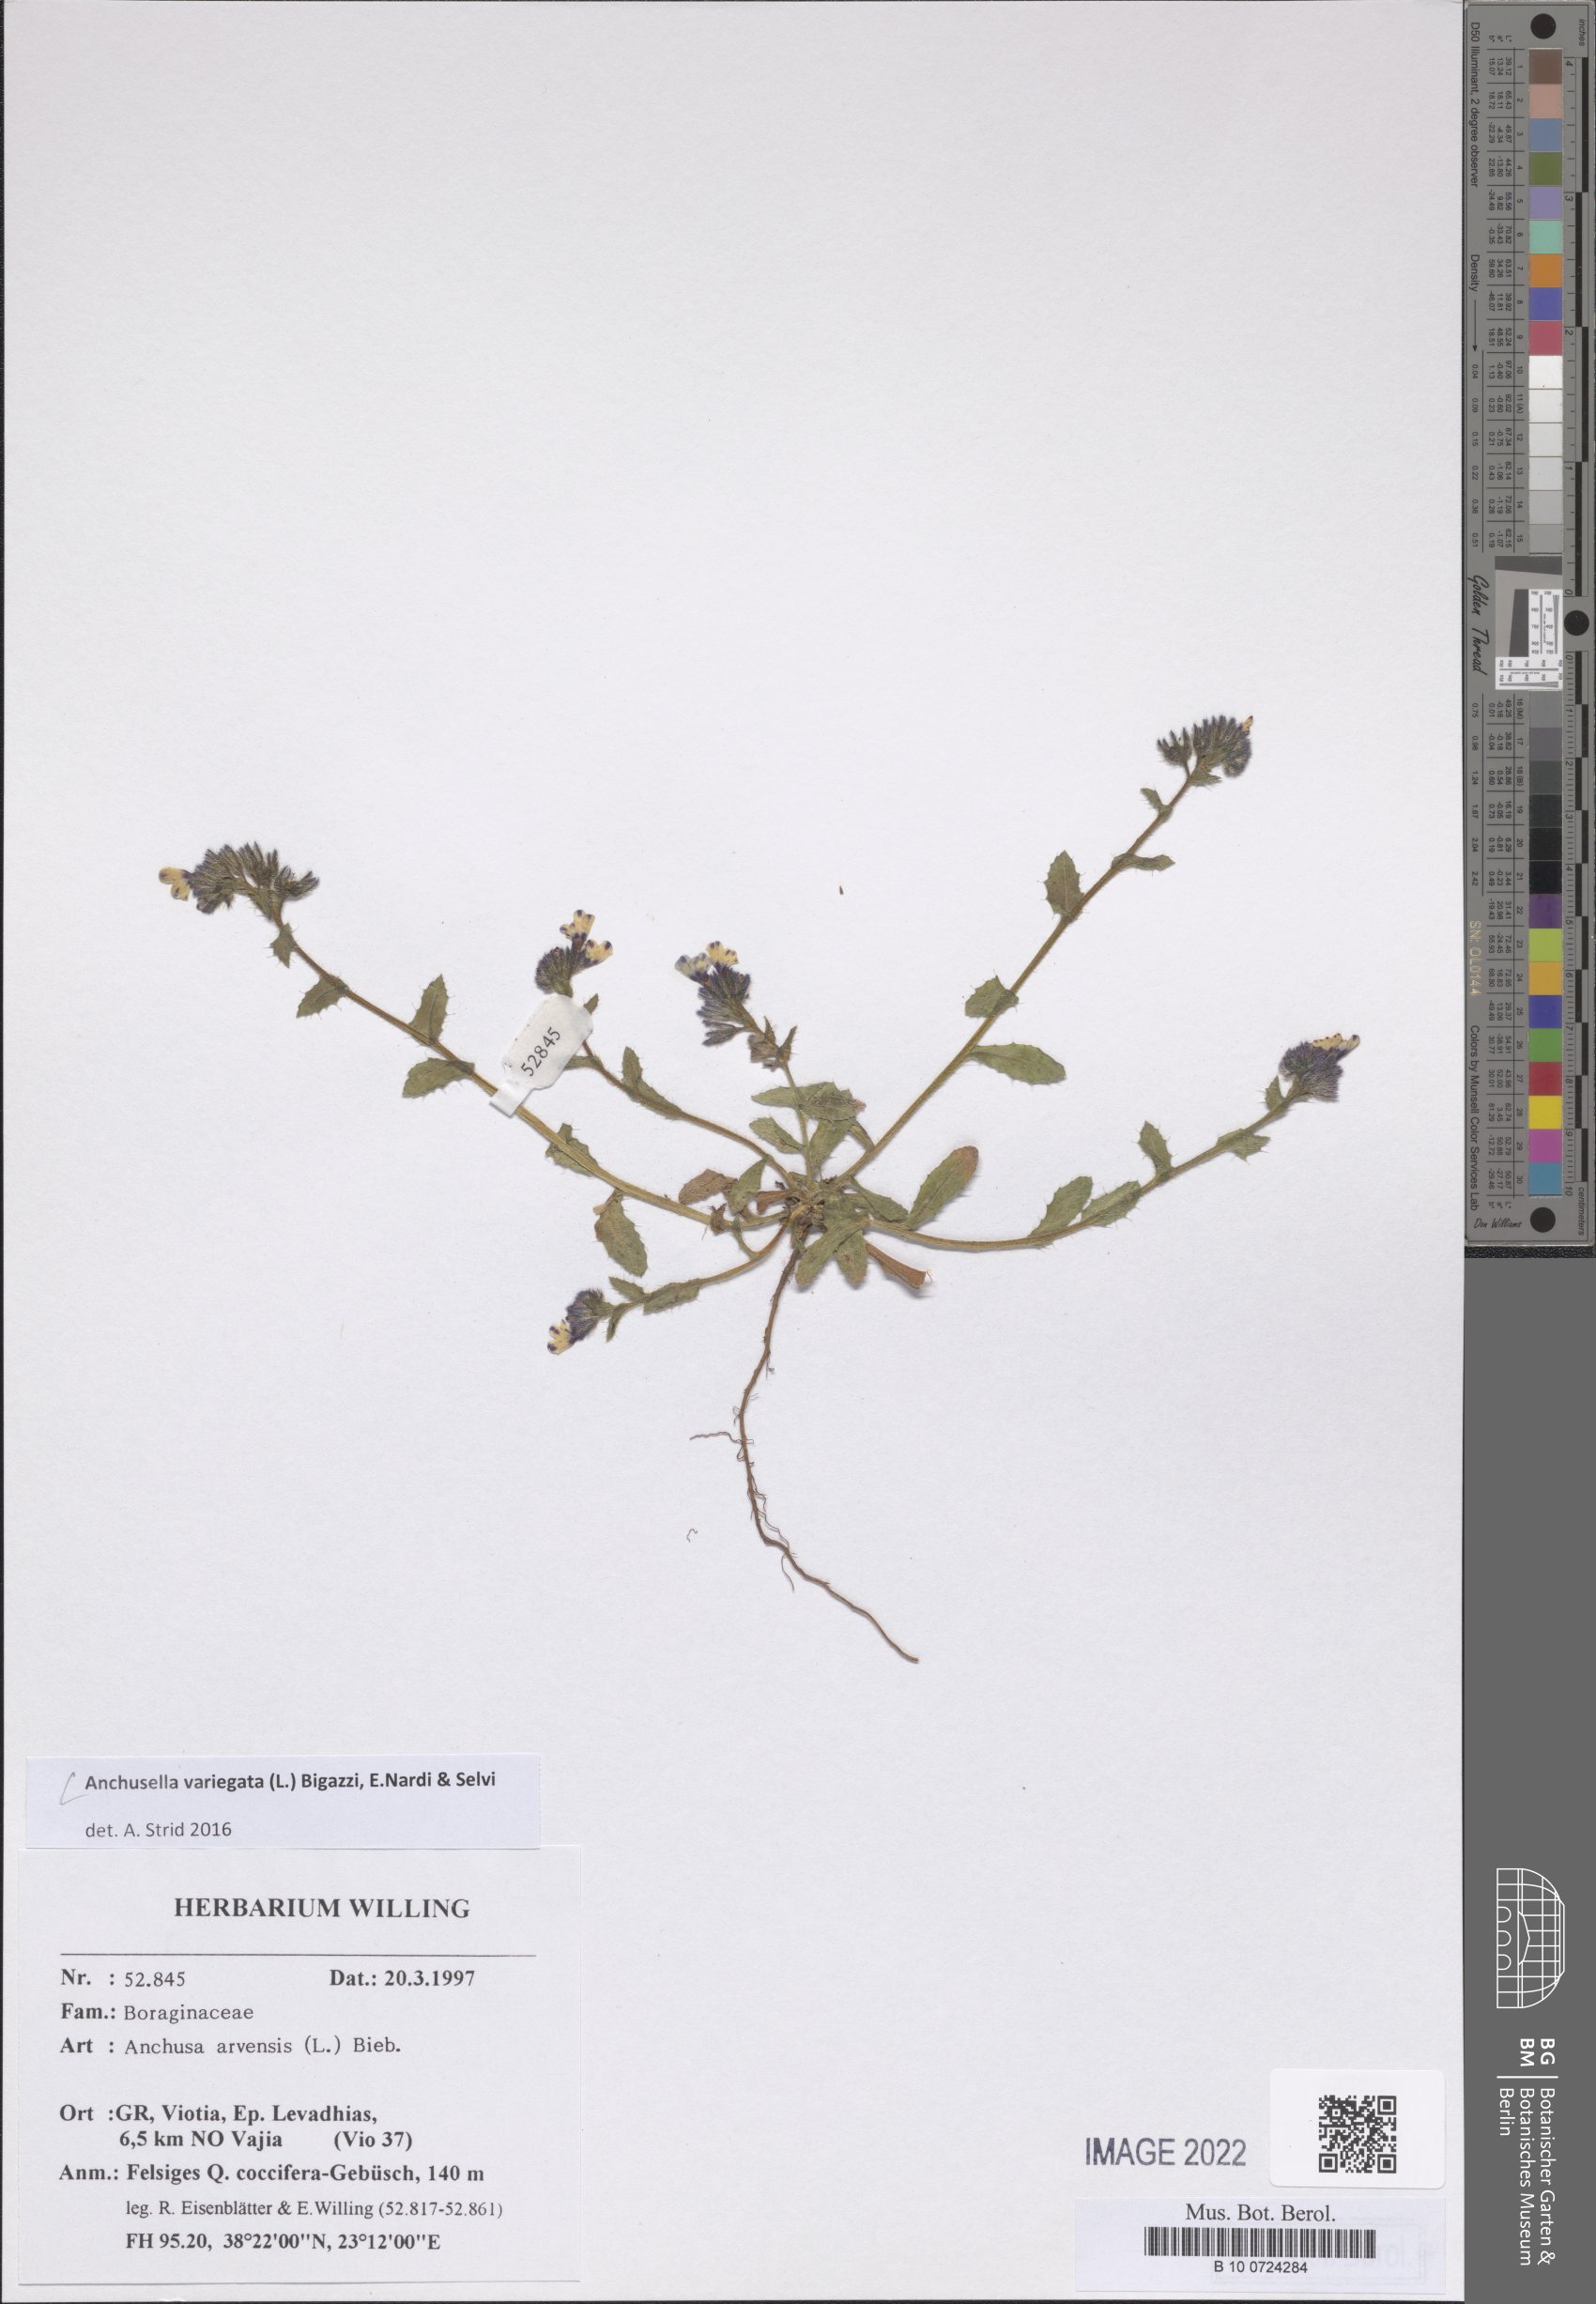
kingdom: Plantae
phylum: Tracheophyta
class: Magnoliopsida
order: Boraginales
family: Boraginaceae
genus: Anchusella
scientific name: Anchusella variegata
